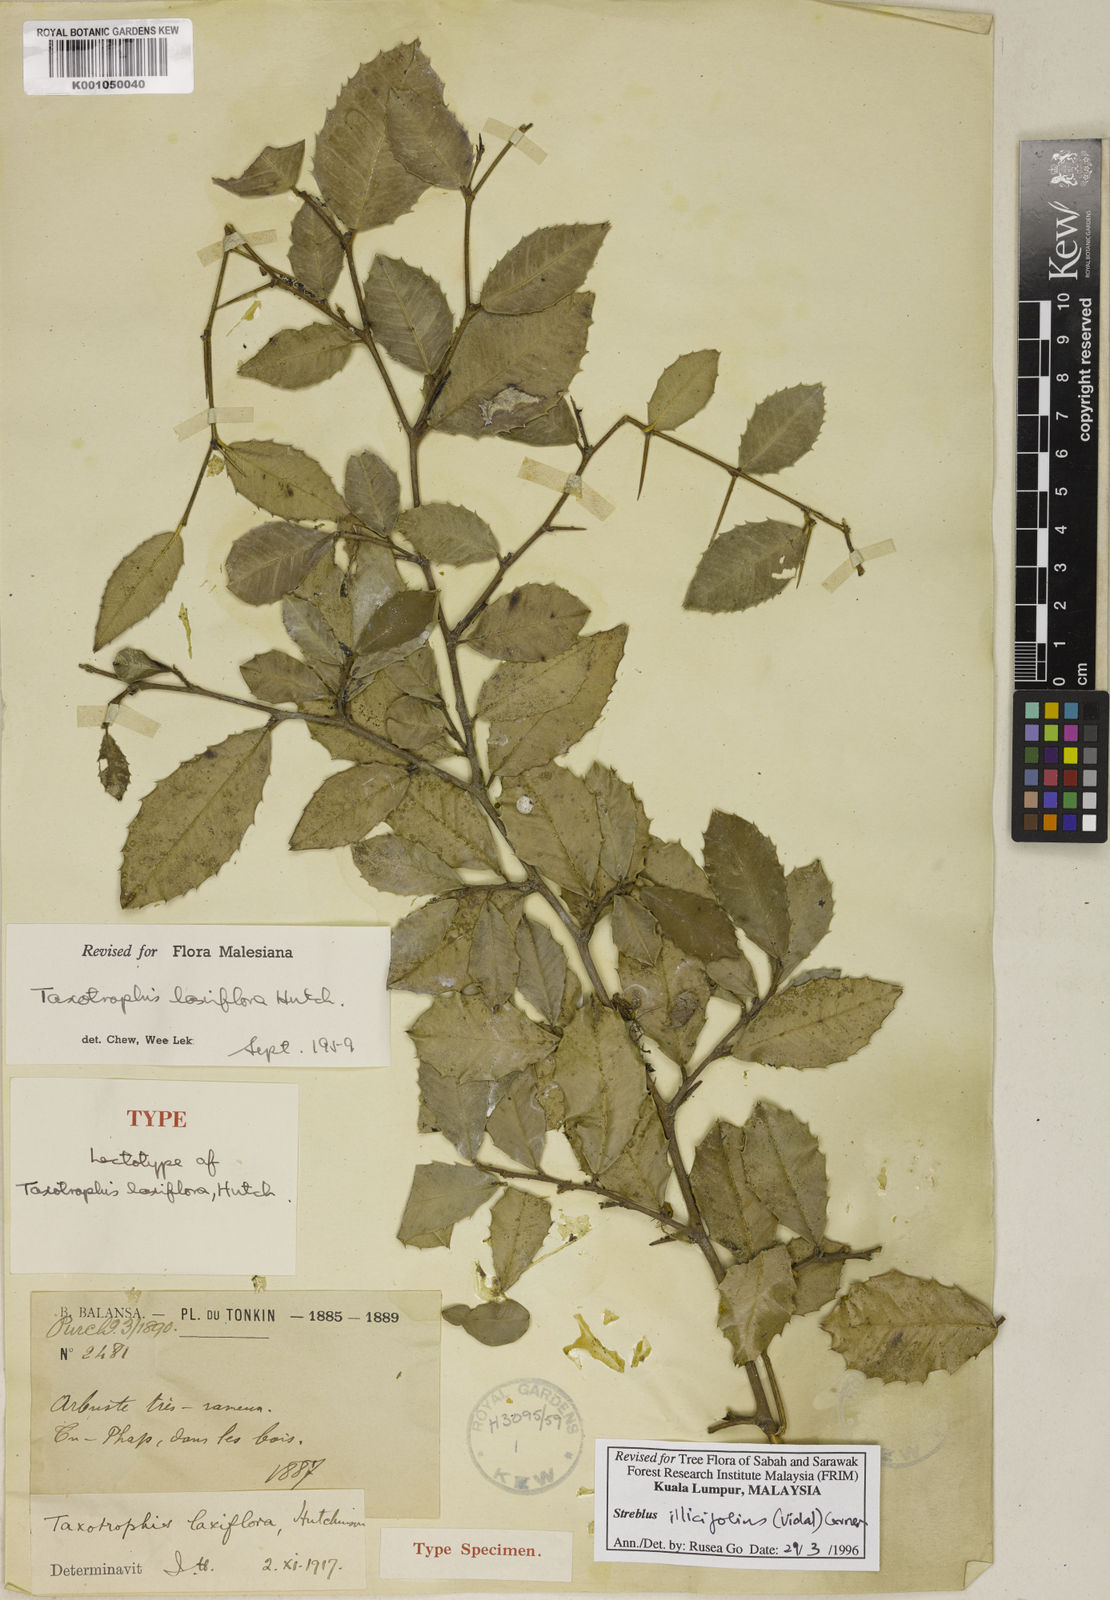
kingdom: Plantae
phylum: Tracheophyta
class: Magnoliopsida
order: Rosales
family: Moraceae
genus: Taxotrophis
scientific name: Taxotrophis ilicifolia
